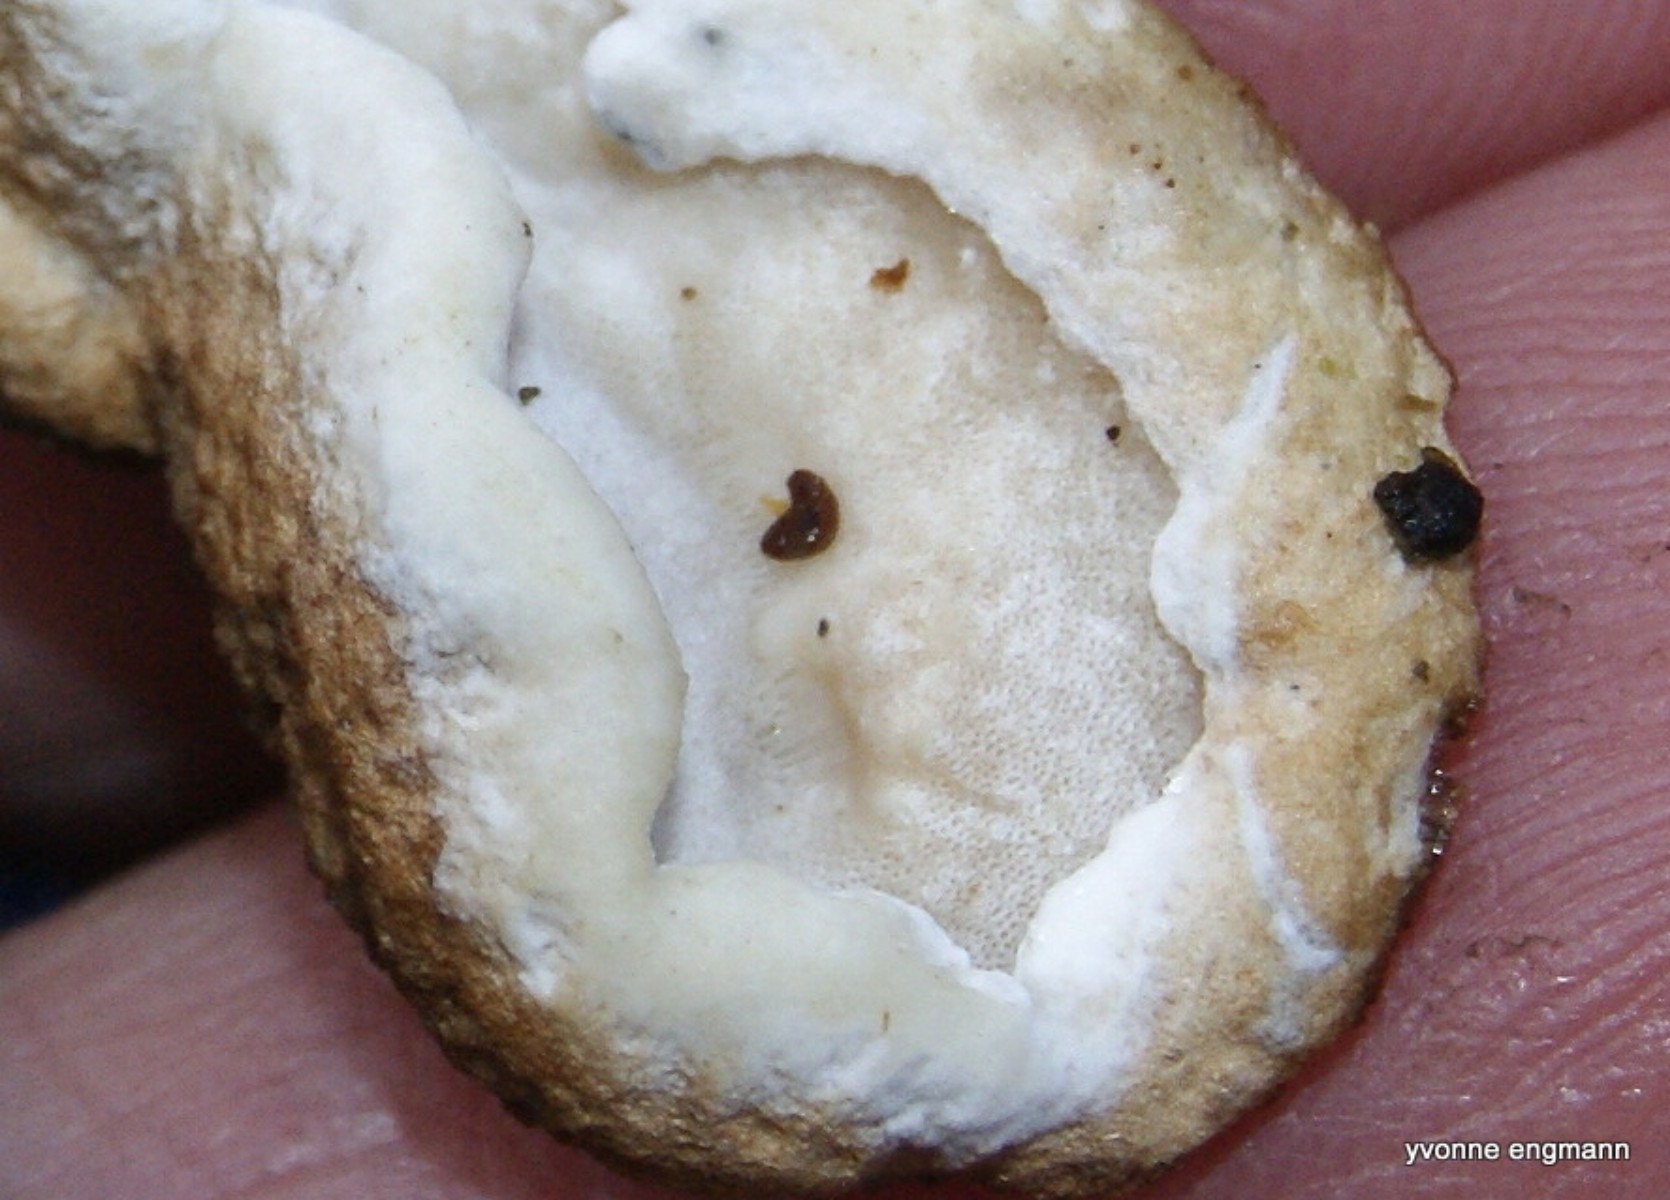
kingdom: Fungi
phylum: Basidiomycota
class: Agaricomycetes
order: Polyporales
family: Incrustoporiaceae
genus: Skeletocutis
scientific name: Skeletocutis nemoralis
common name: stor krystalporesvamp
